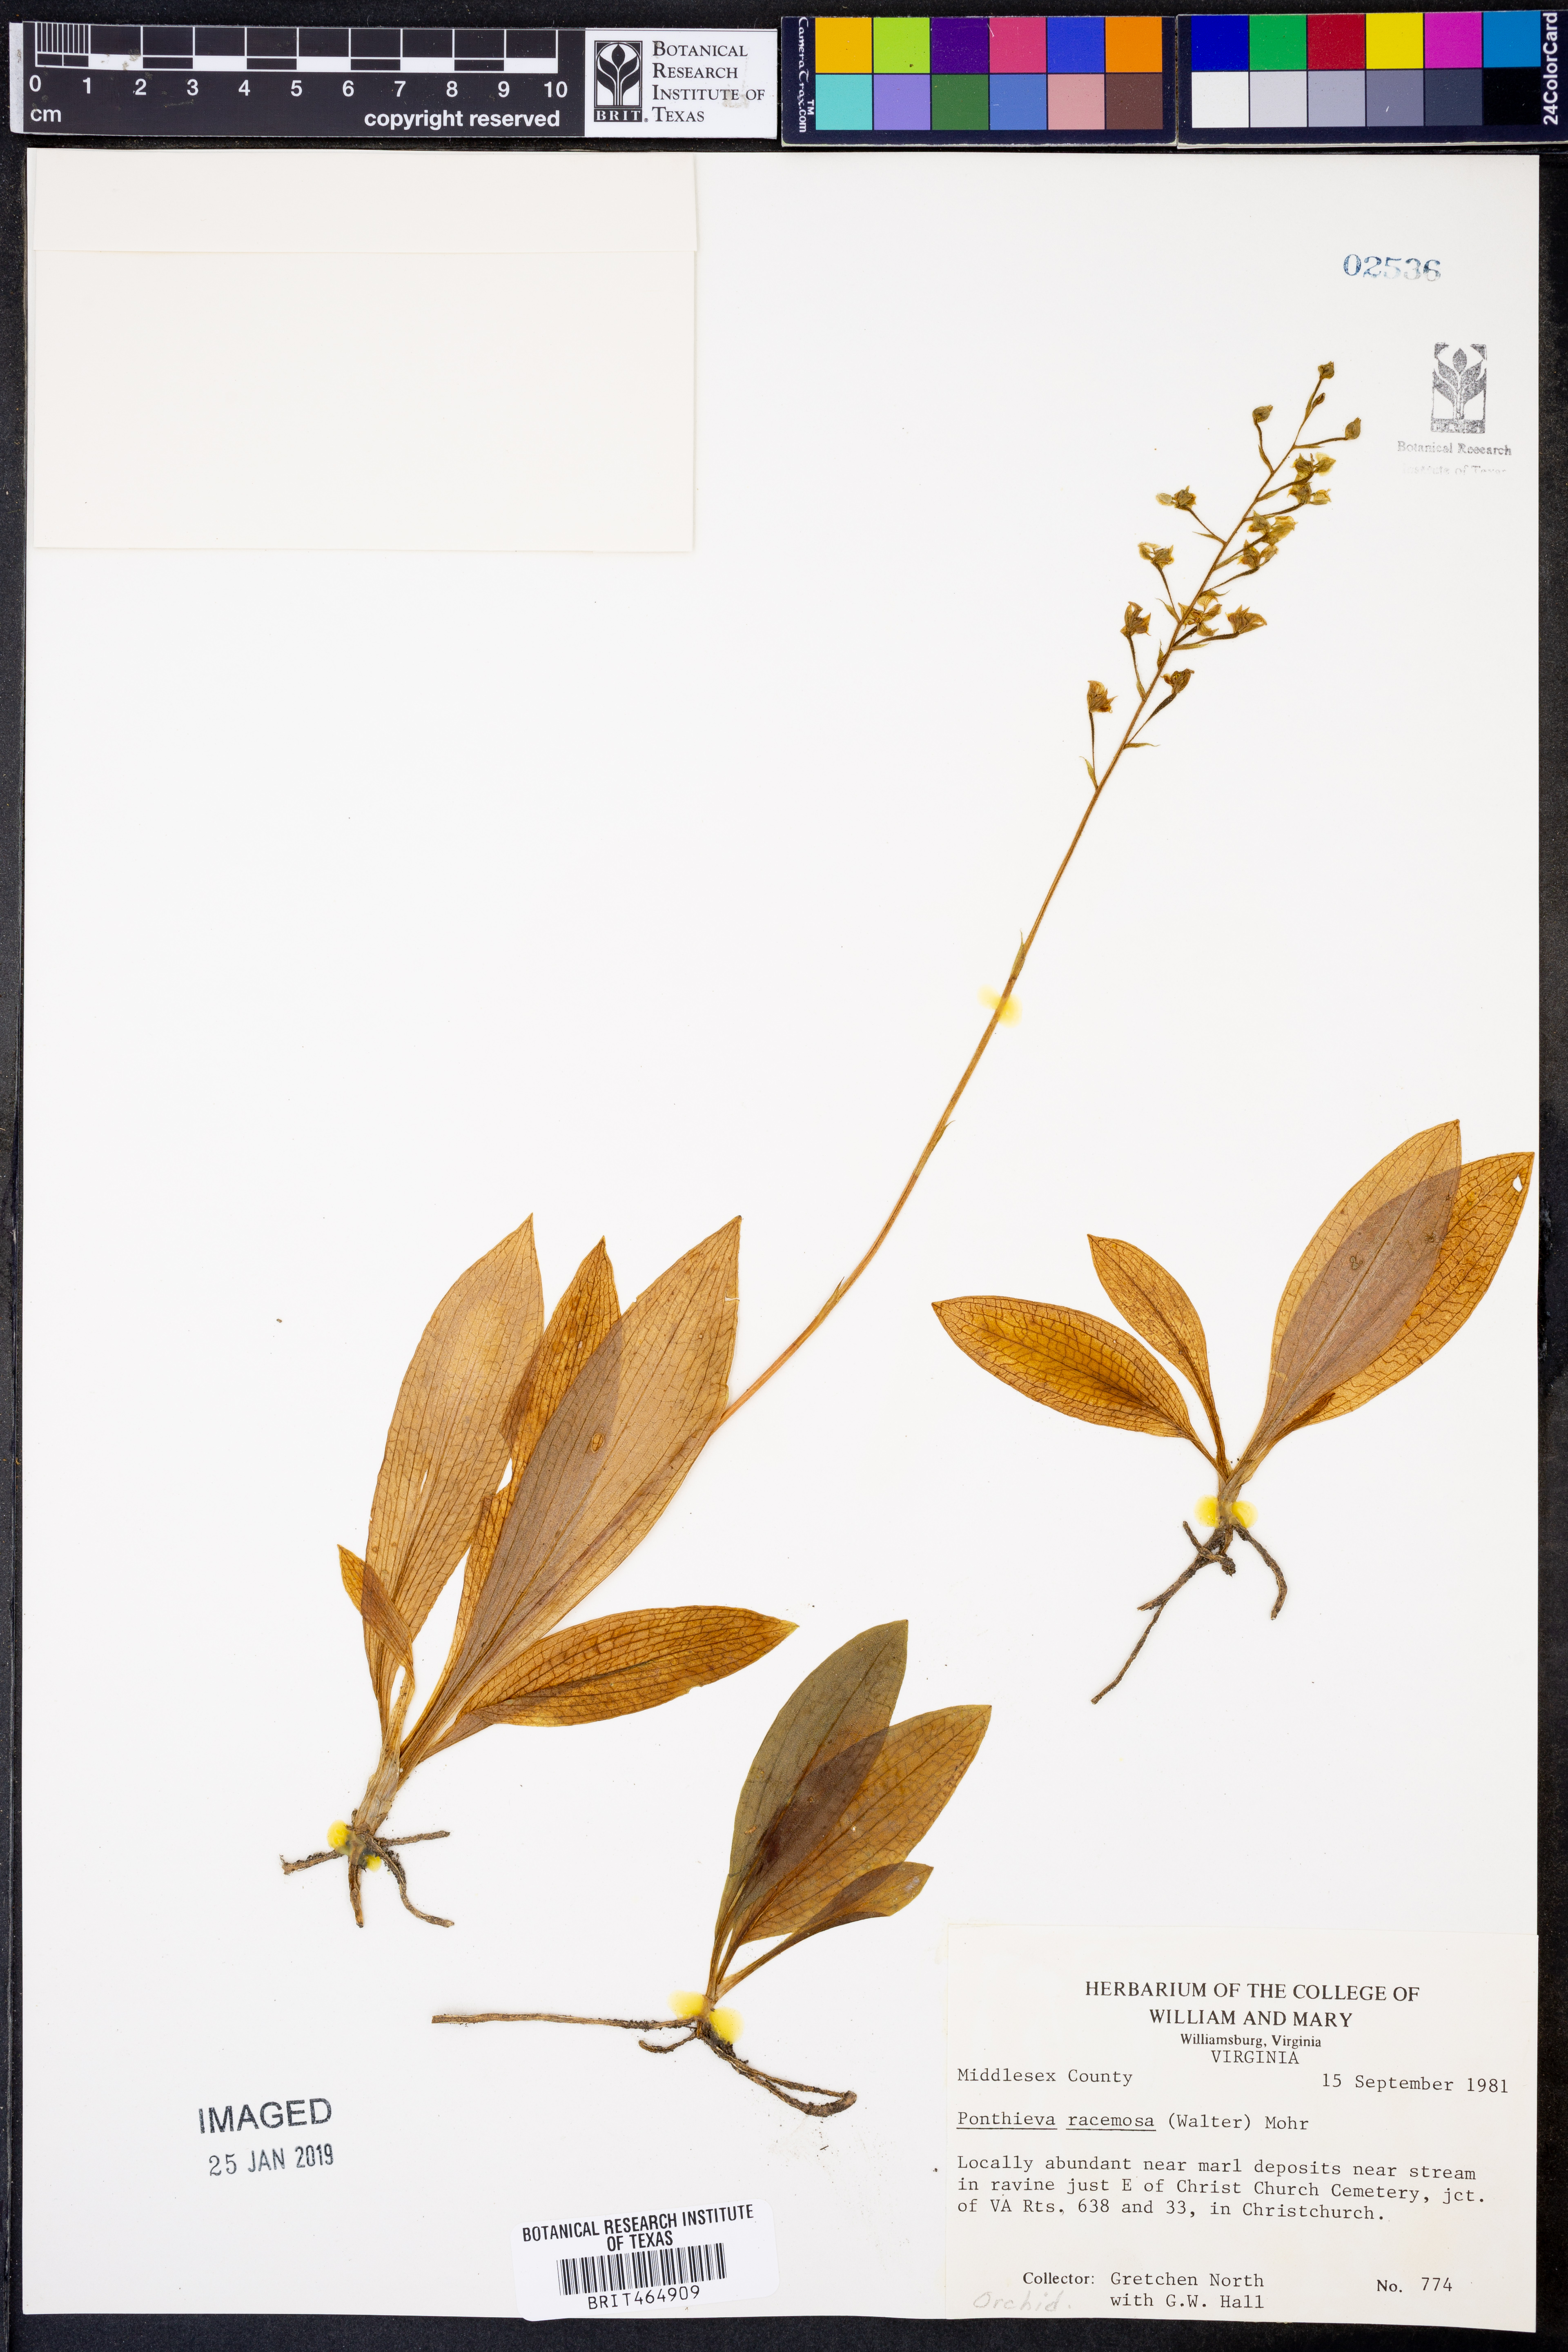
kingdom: Plantae
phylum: Tracheophyta
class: Liliopsida
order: Asparagales
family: Orchidaceae
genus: Ponthieva
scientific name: Ponthieva racemosa
